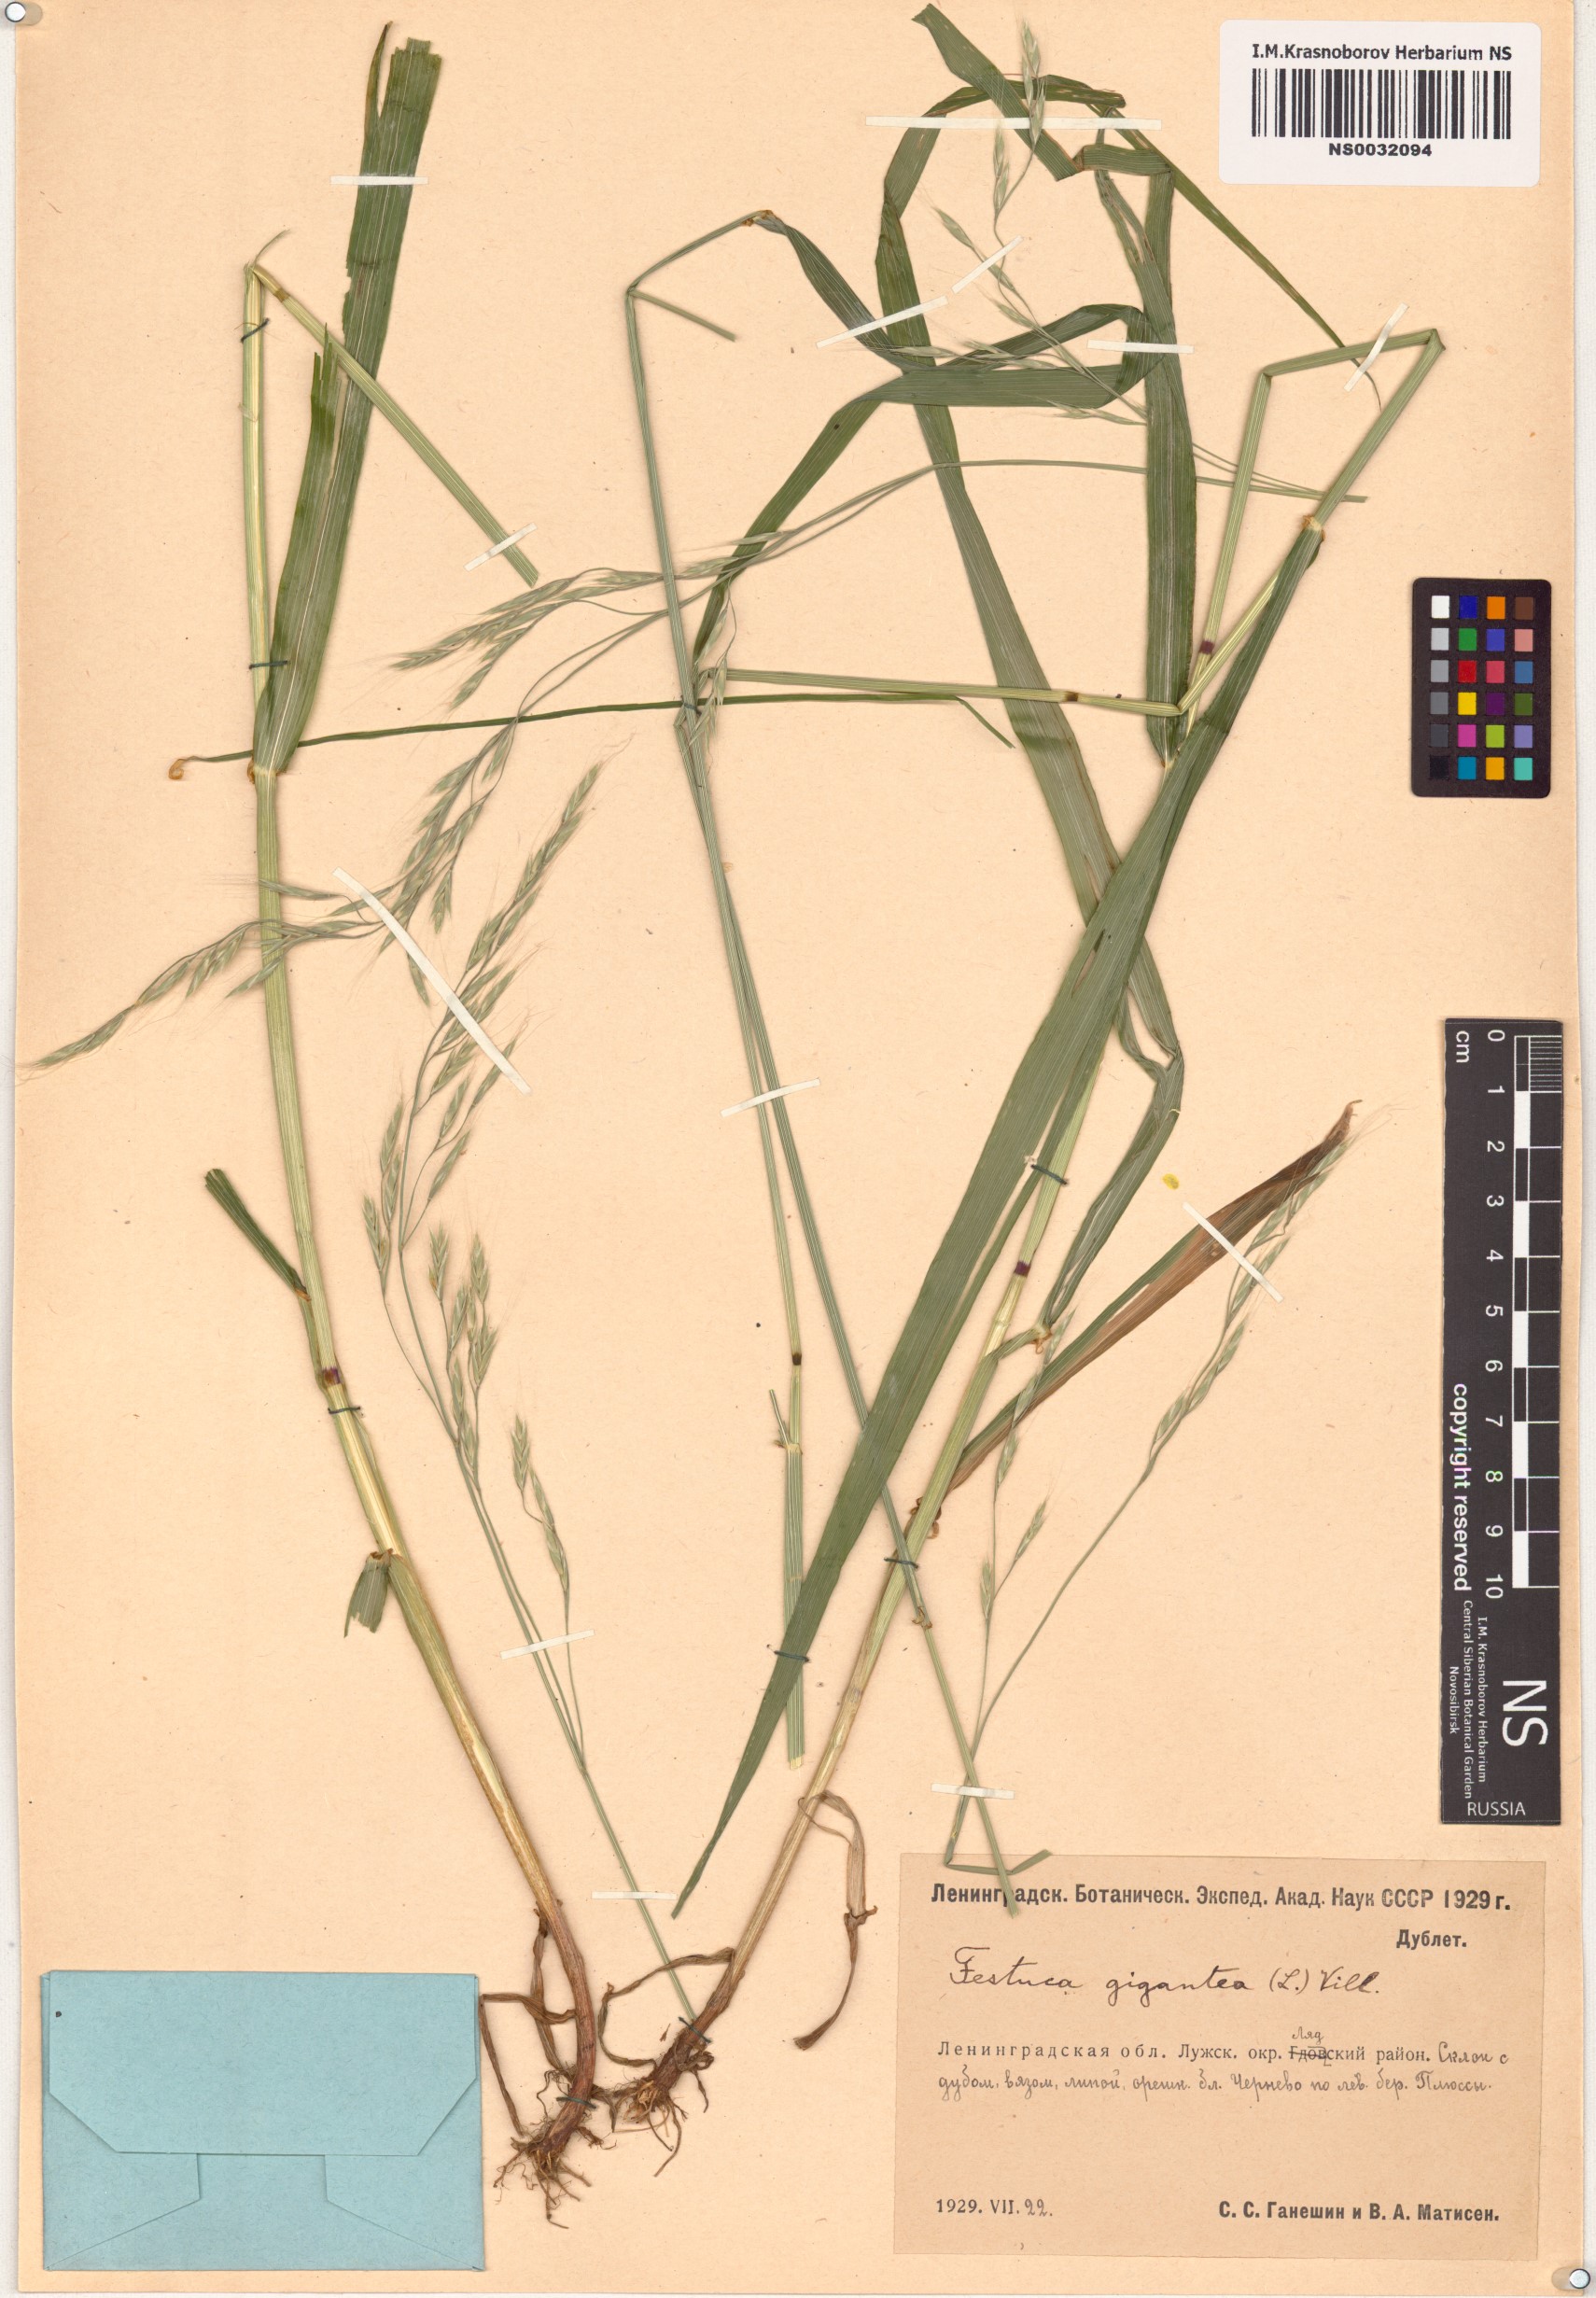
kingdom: Plantae
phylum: Tracheophyta
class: Liliopsida
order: Poales
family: Poaceae
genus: Lolium
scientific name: Lolium giganteum
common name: Giant fescue
